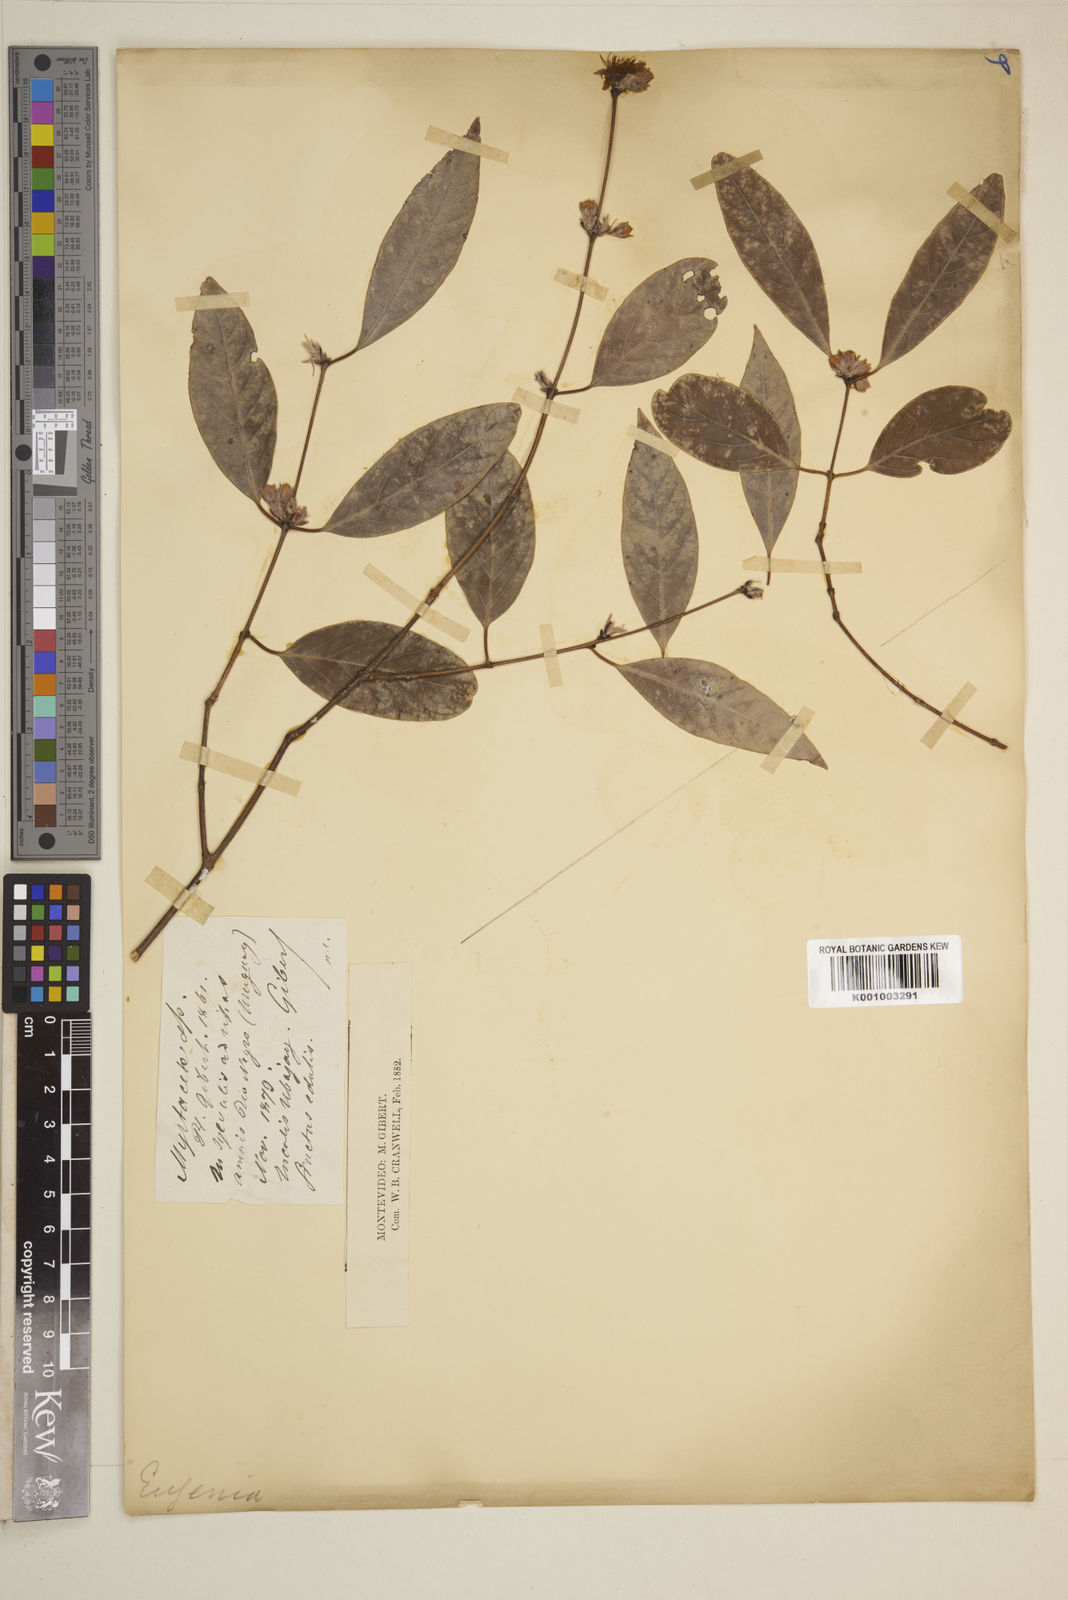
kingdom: Plantae
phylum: Tracheophyta
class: Magnoliopsida
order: Myrtales
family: Myrtaceae
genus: Eugenia
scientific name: Eugenia
